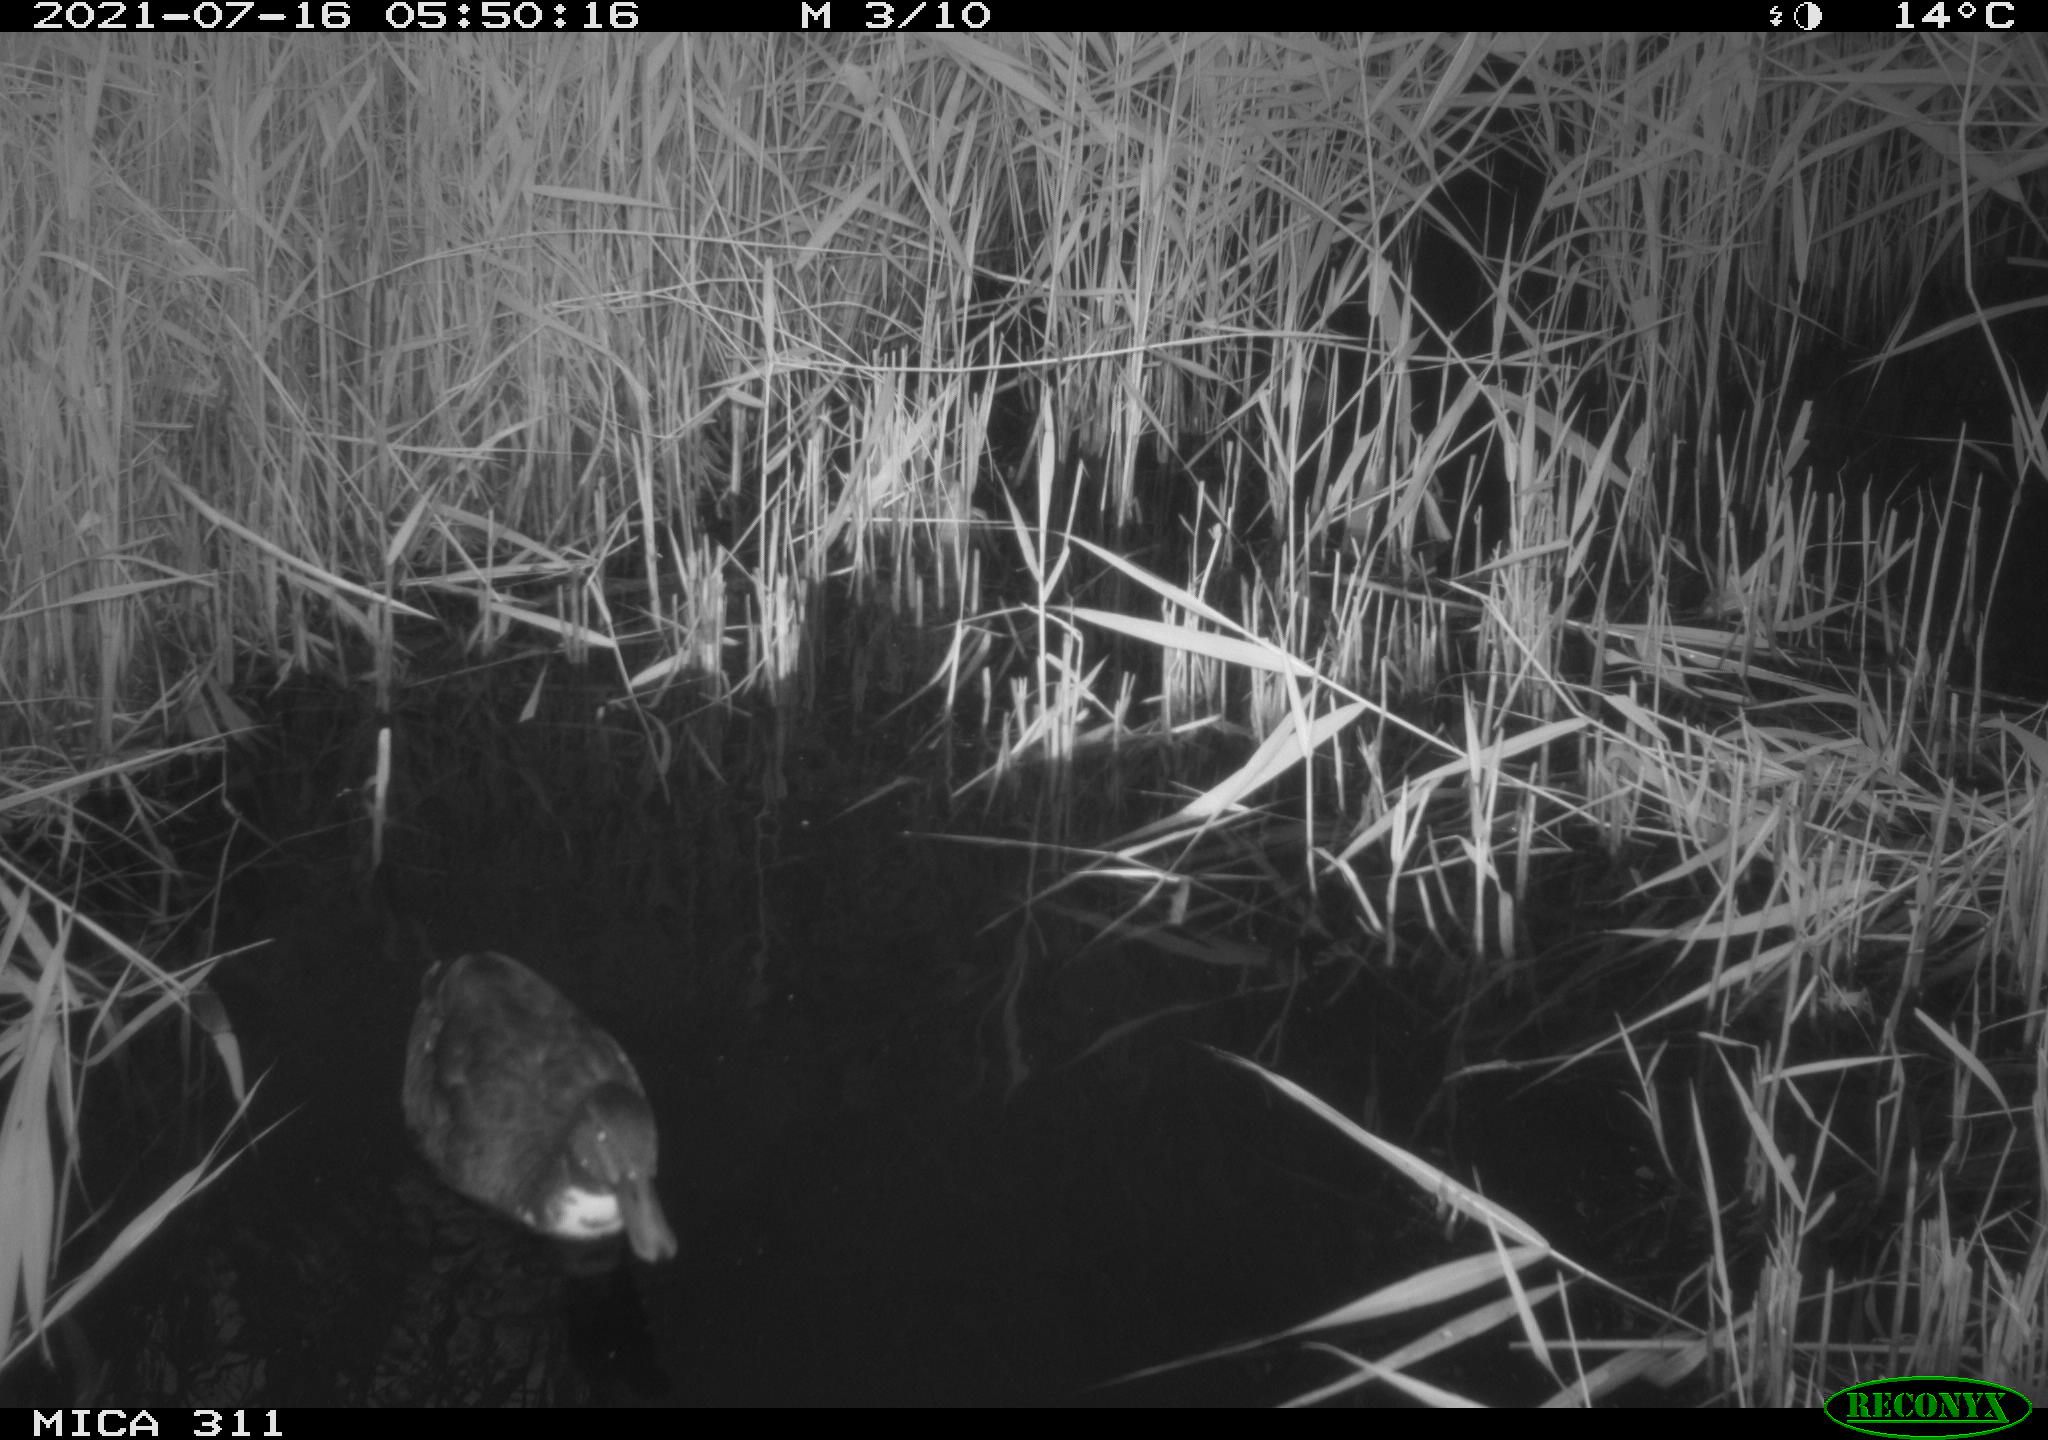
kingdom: Animalia
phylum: Chordata
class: Aves
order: Anseriformes
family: Anatidae
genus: Anas
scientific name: Anas platyrhynchos
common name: Mallard
